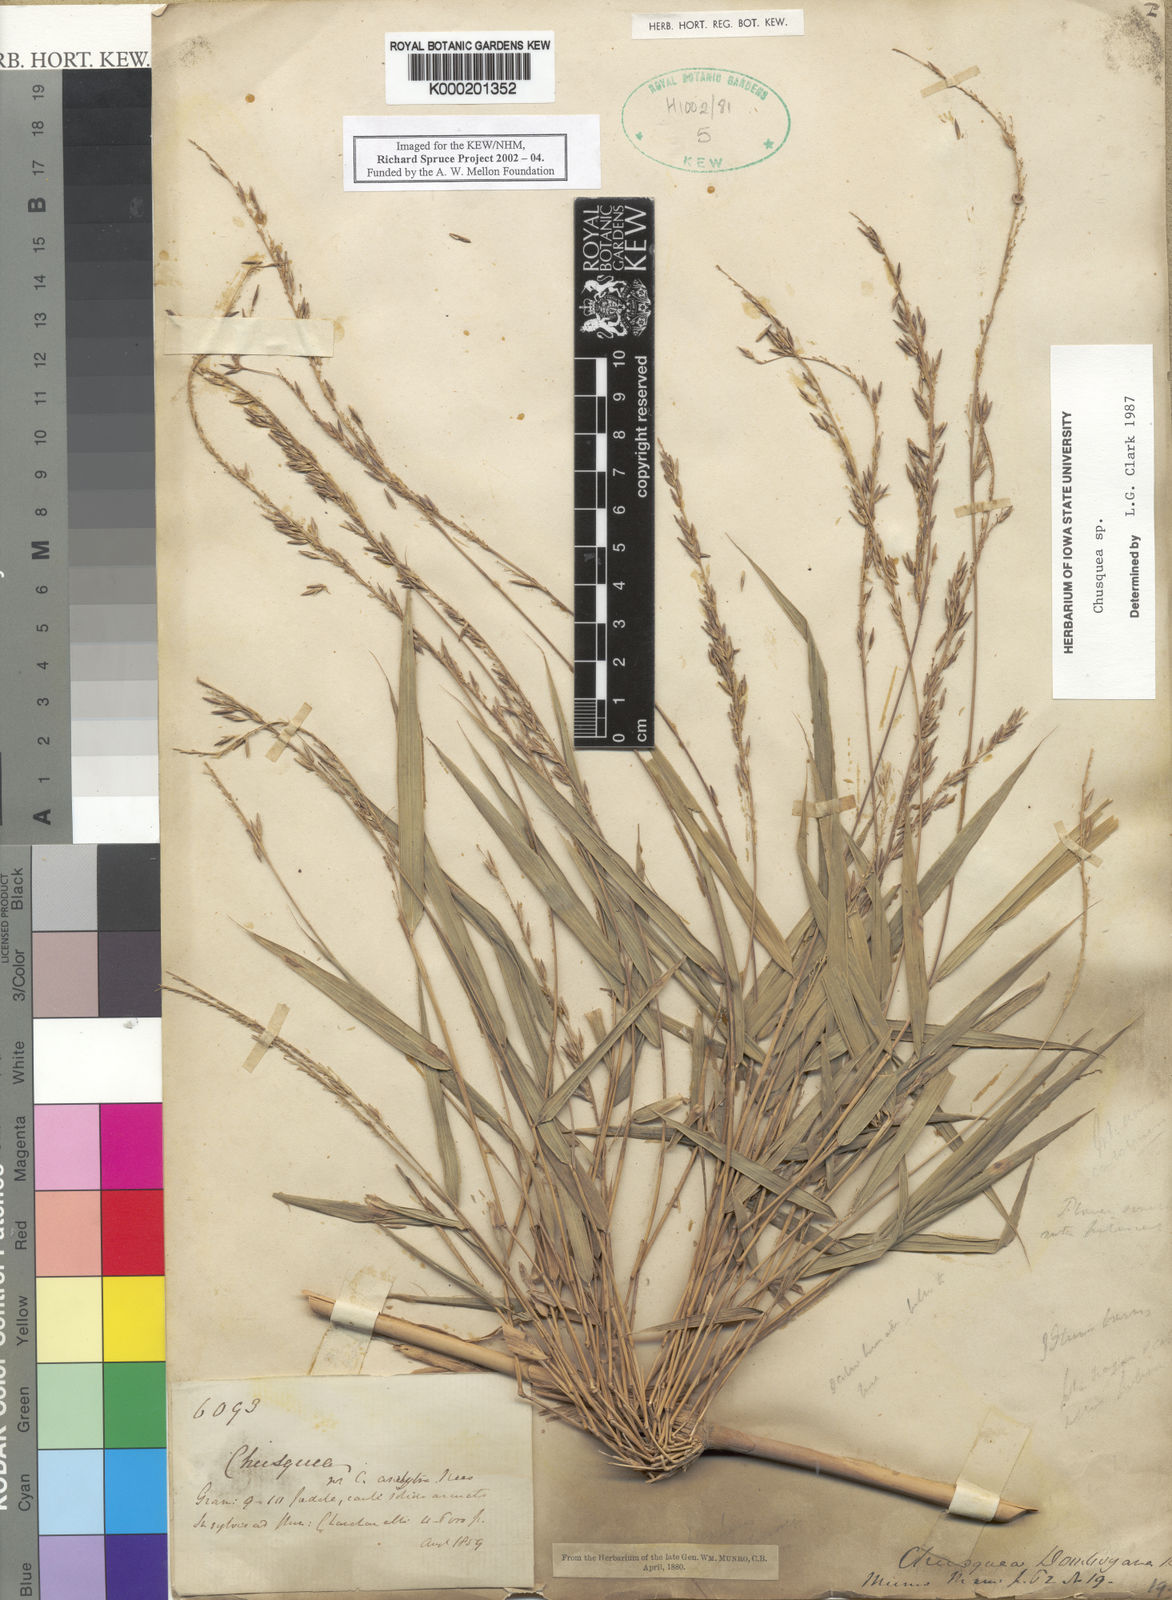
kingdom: Plantae
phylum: Tracheophyta
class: Liliopsida
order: Poales
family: Poaceae
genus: Chusquea
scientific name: Chusquea
